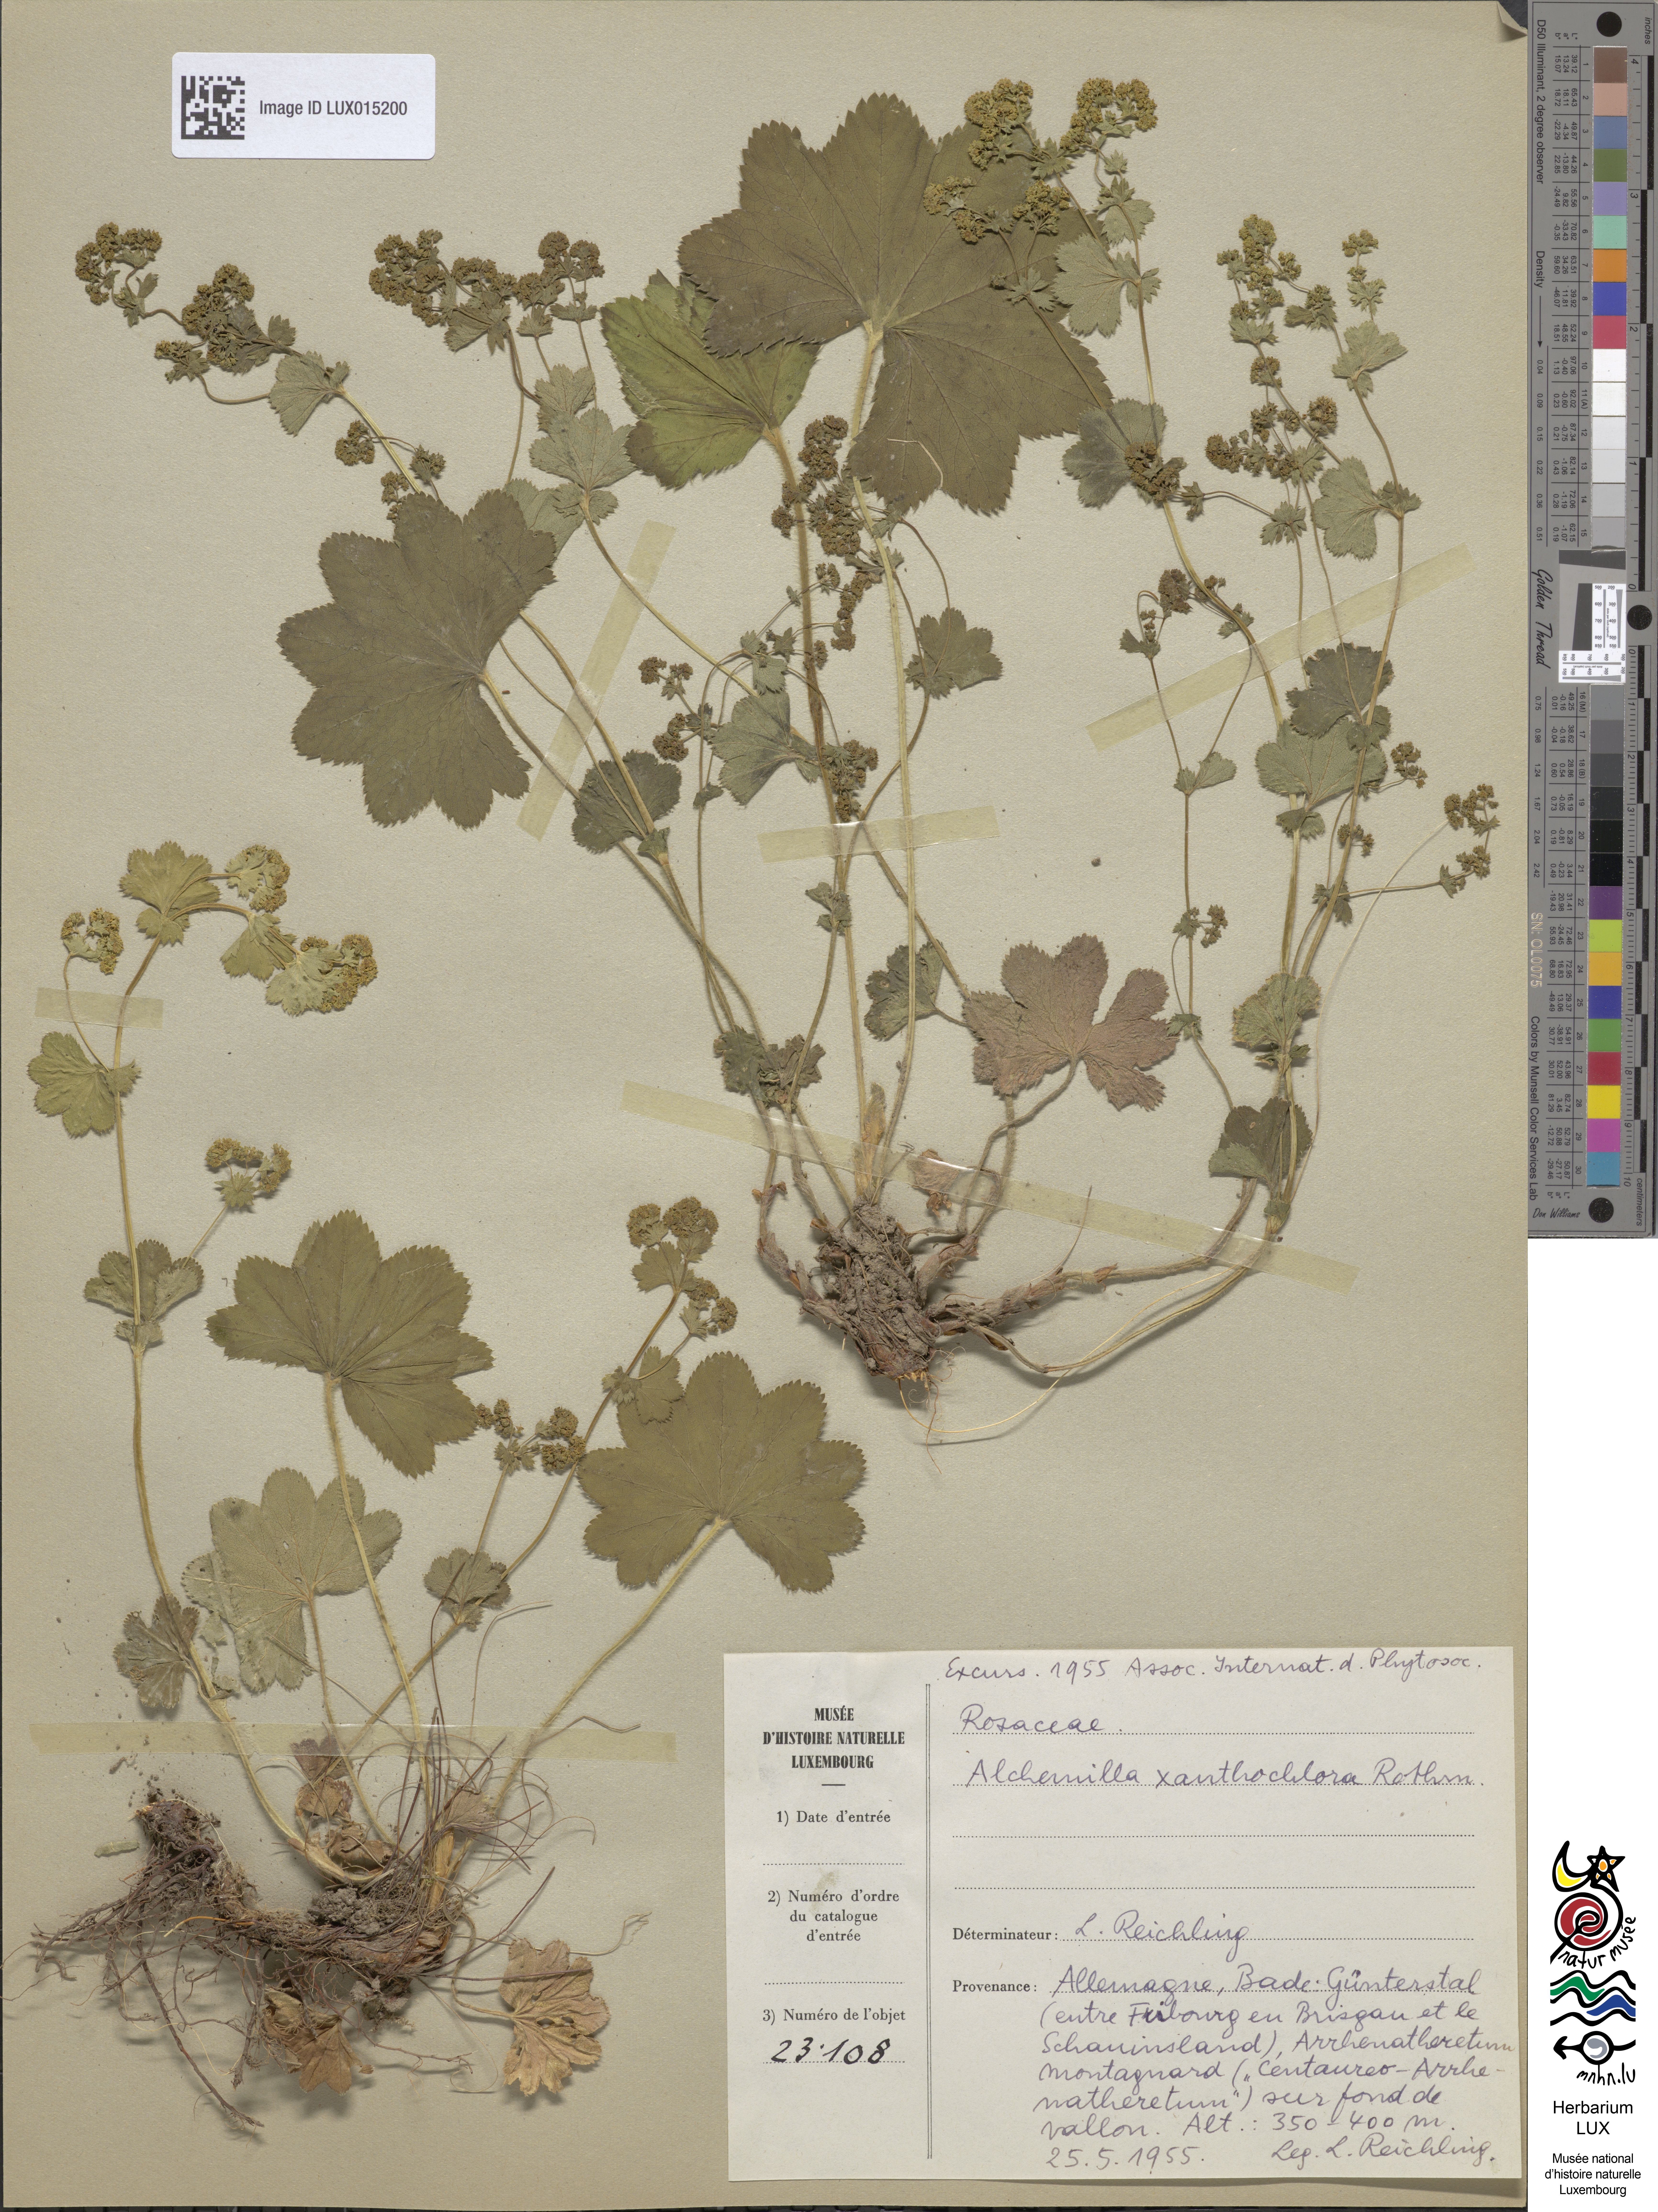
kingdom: Plantae
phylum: Tracheophyta
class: Magnoliopsida
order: Rosales
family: Rosaceae
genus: Alchemilla
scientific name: Alchemilla xanthochlora
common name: Intermediate lady's-mantle
